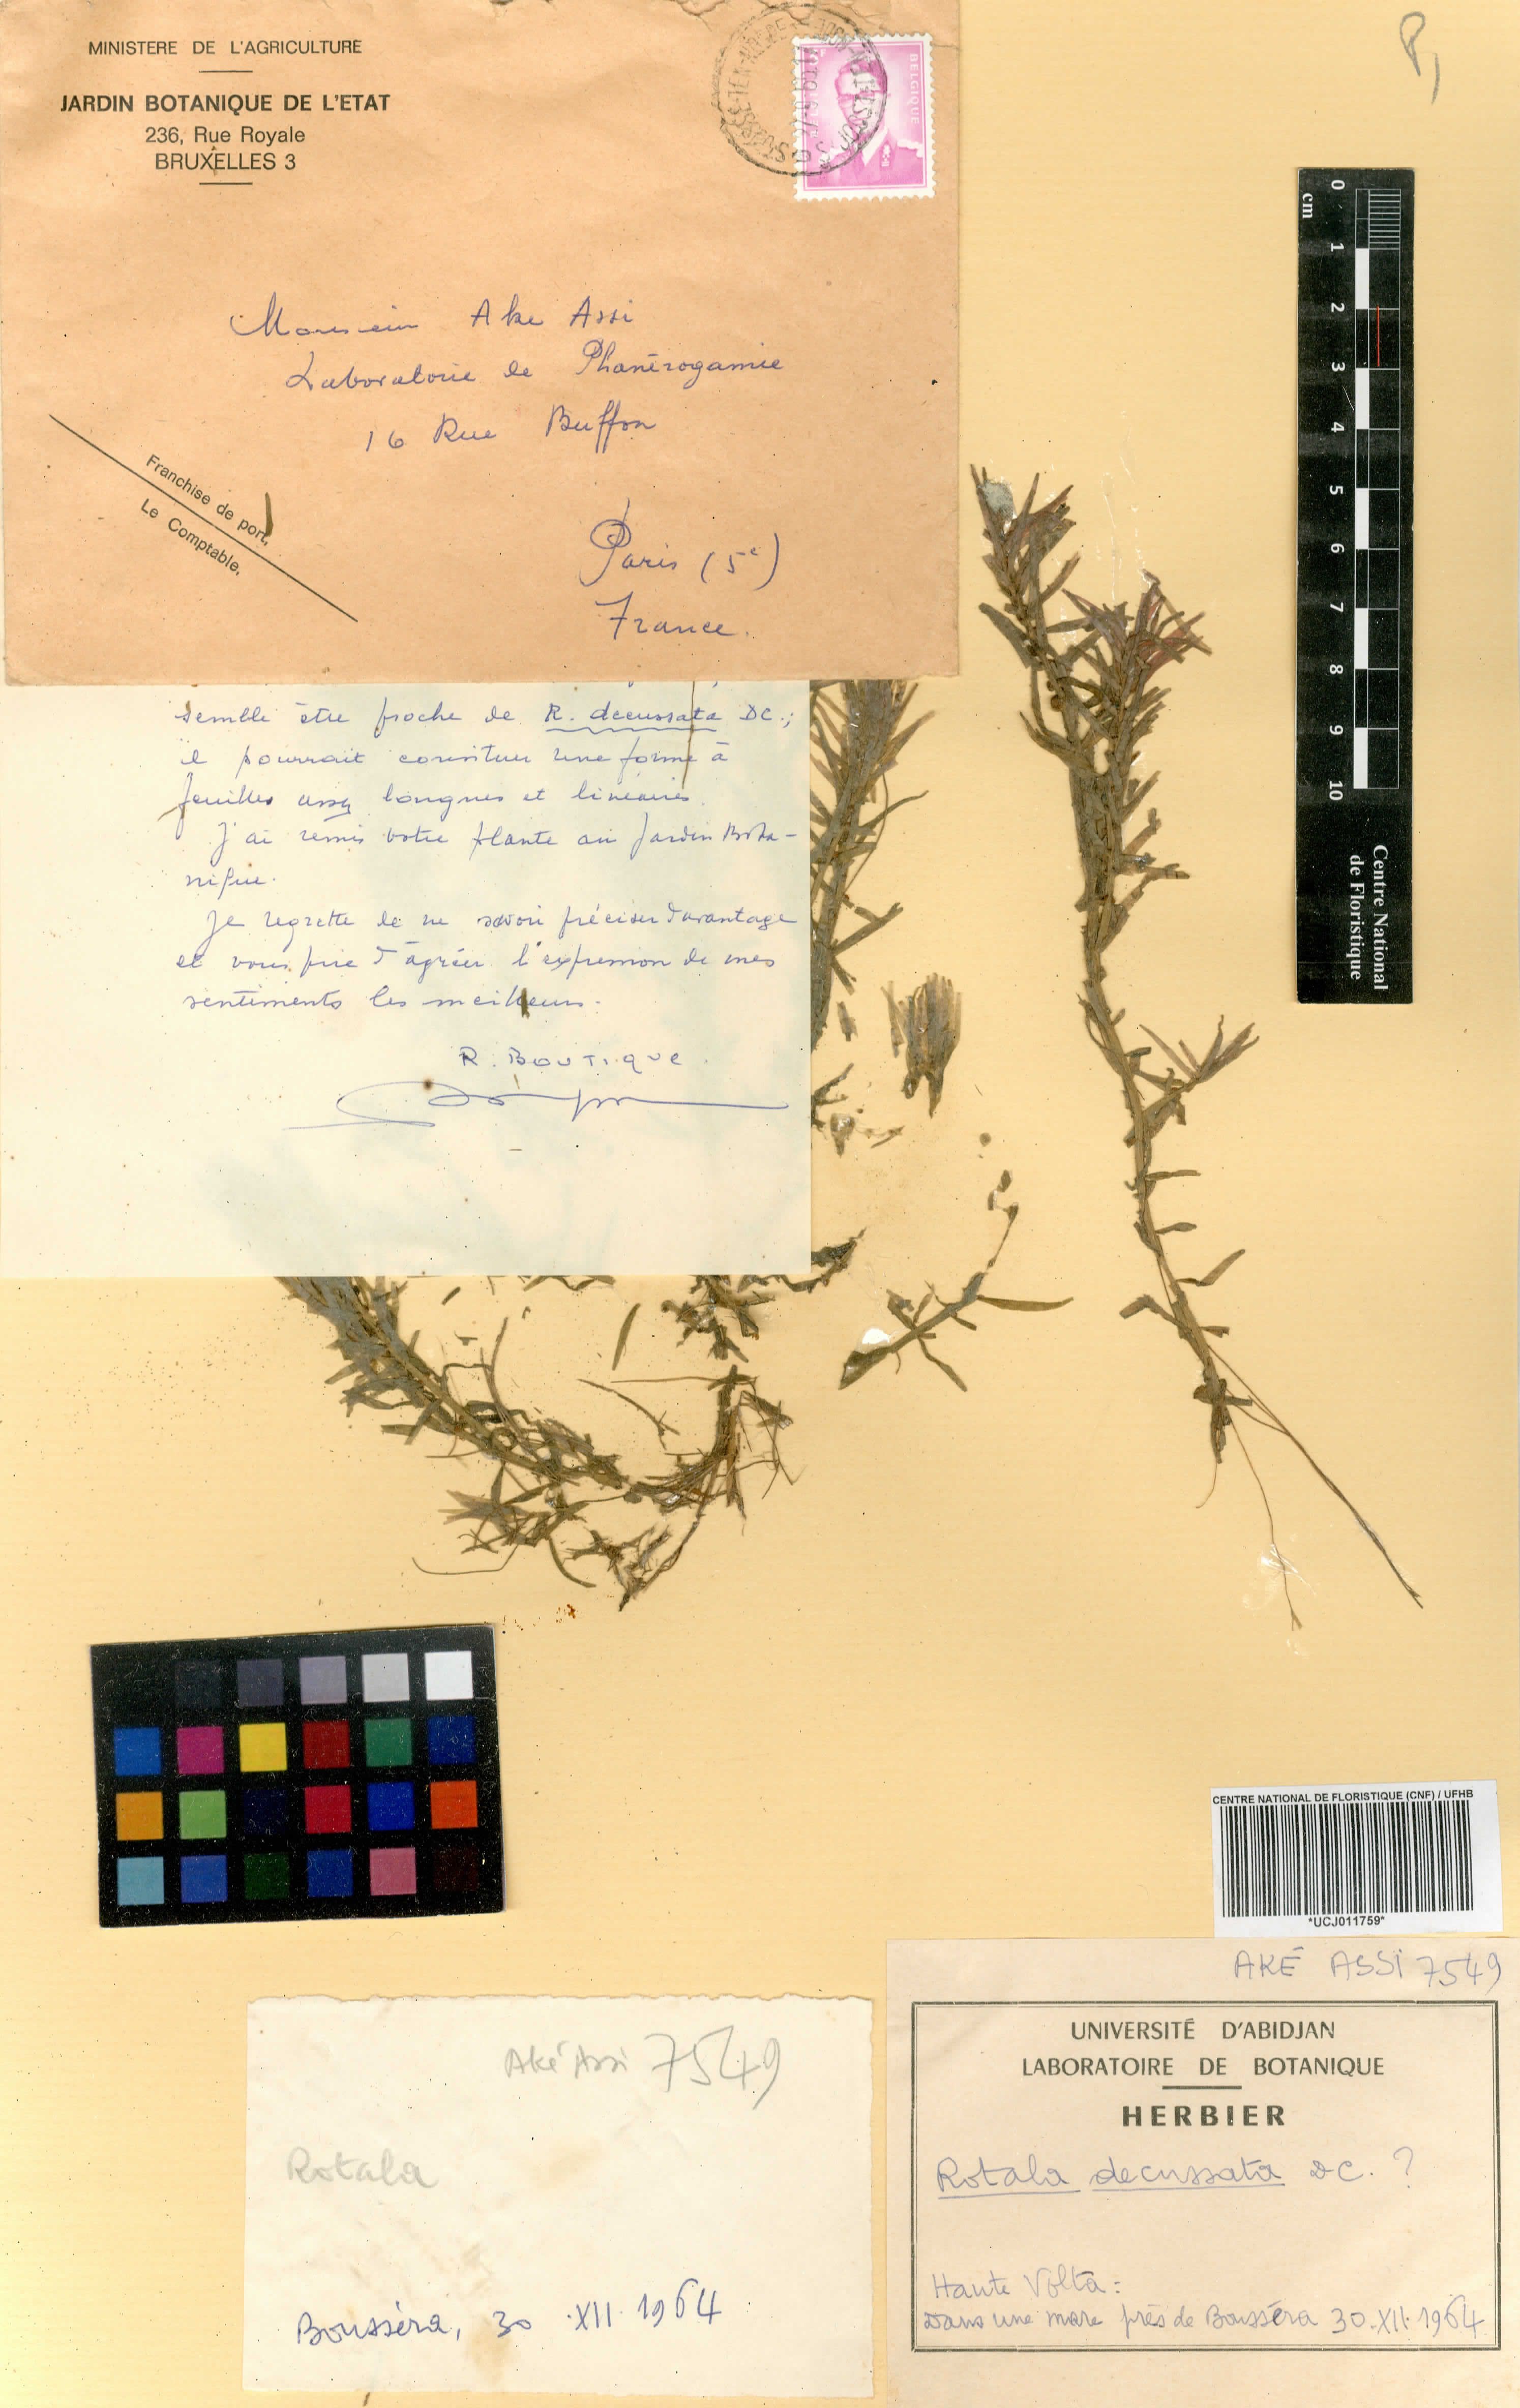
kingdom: Plantae
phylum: Tracheophyta
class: Magnoliopsida
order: Myrtales
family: Lythraceae
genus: Rotala
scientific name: Rotala mexicana
